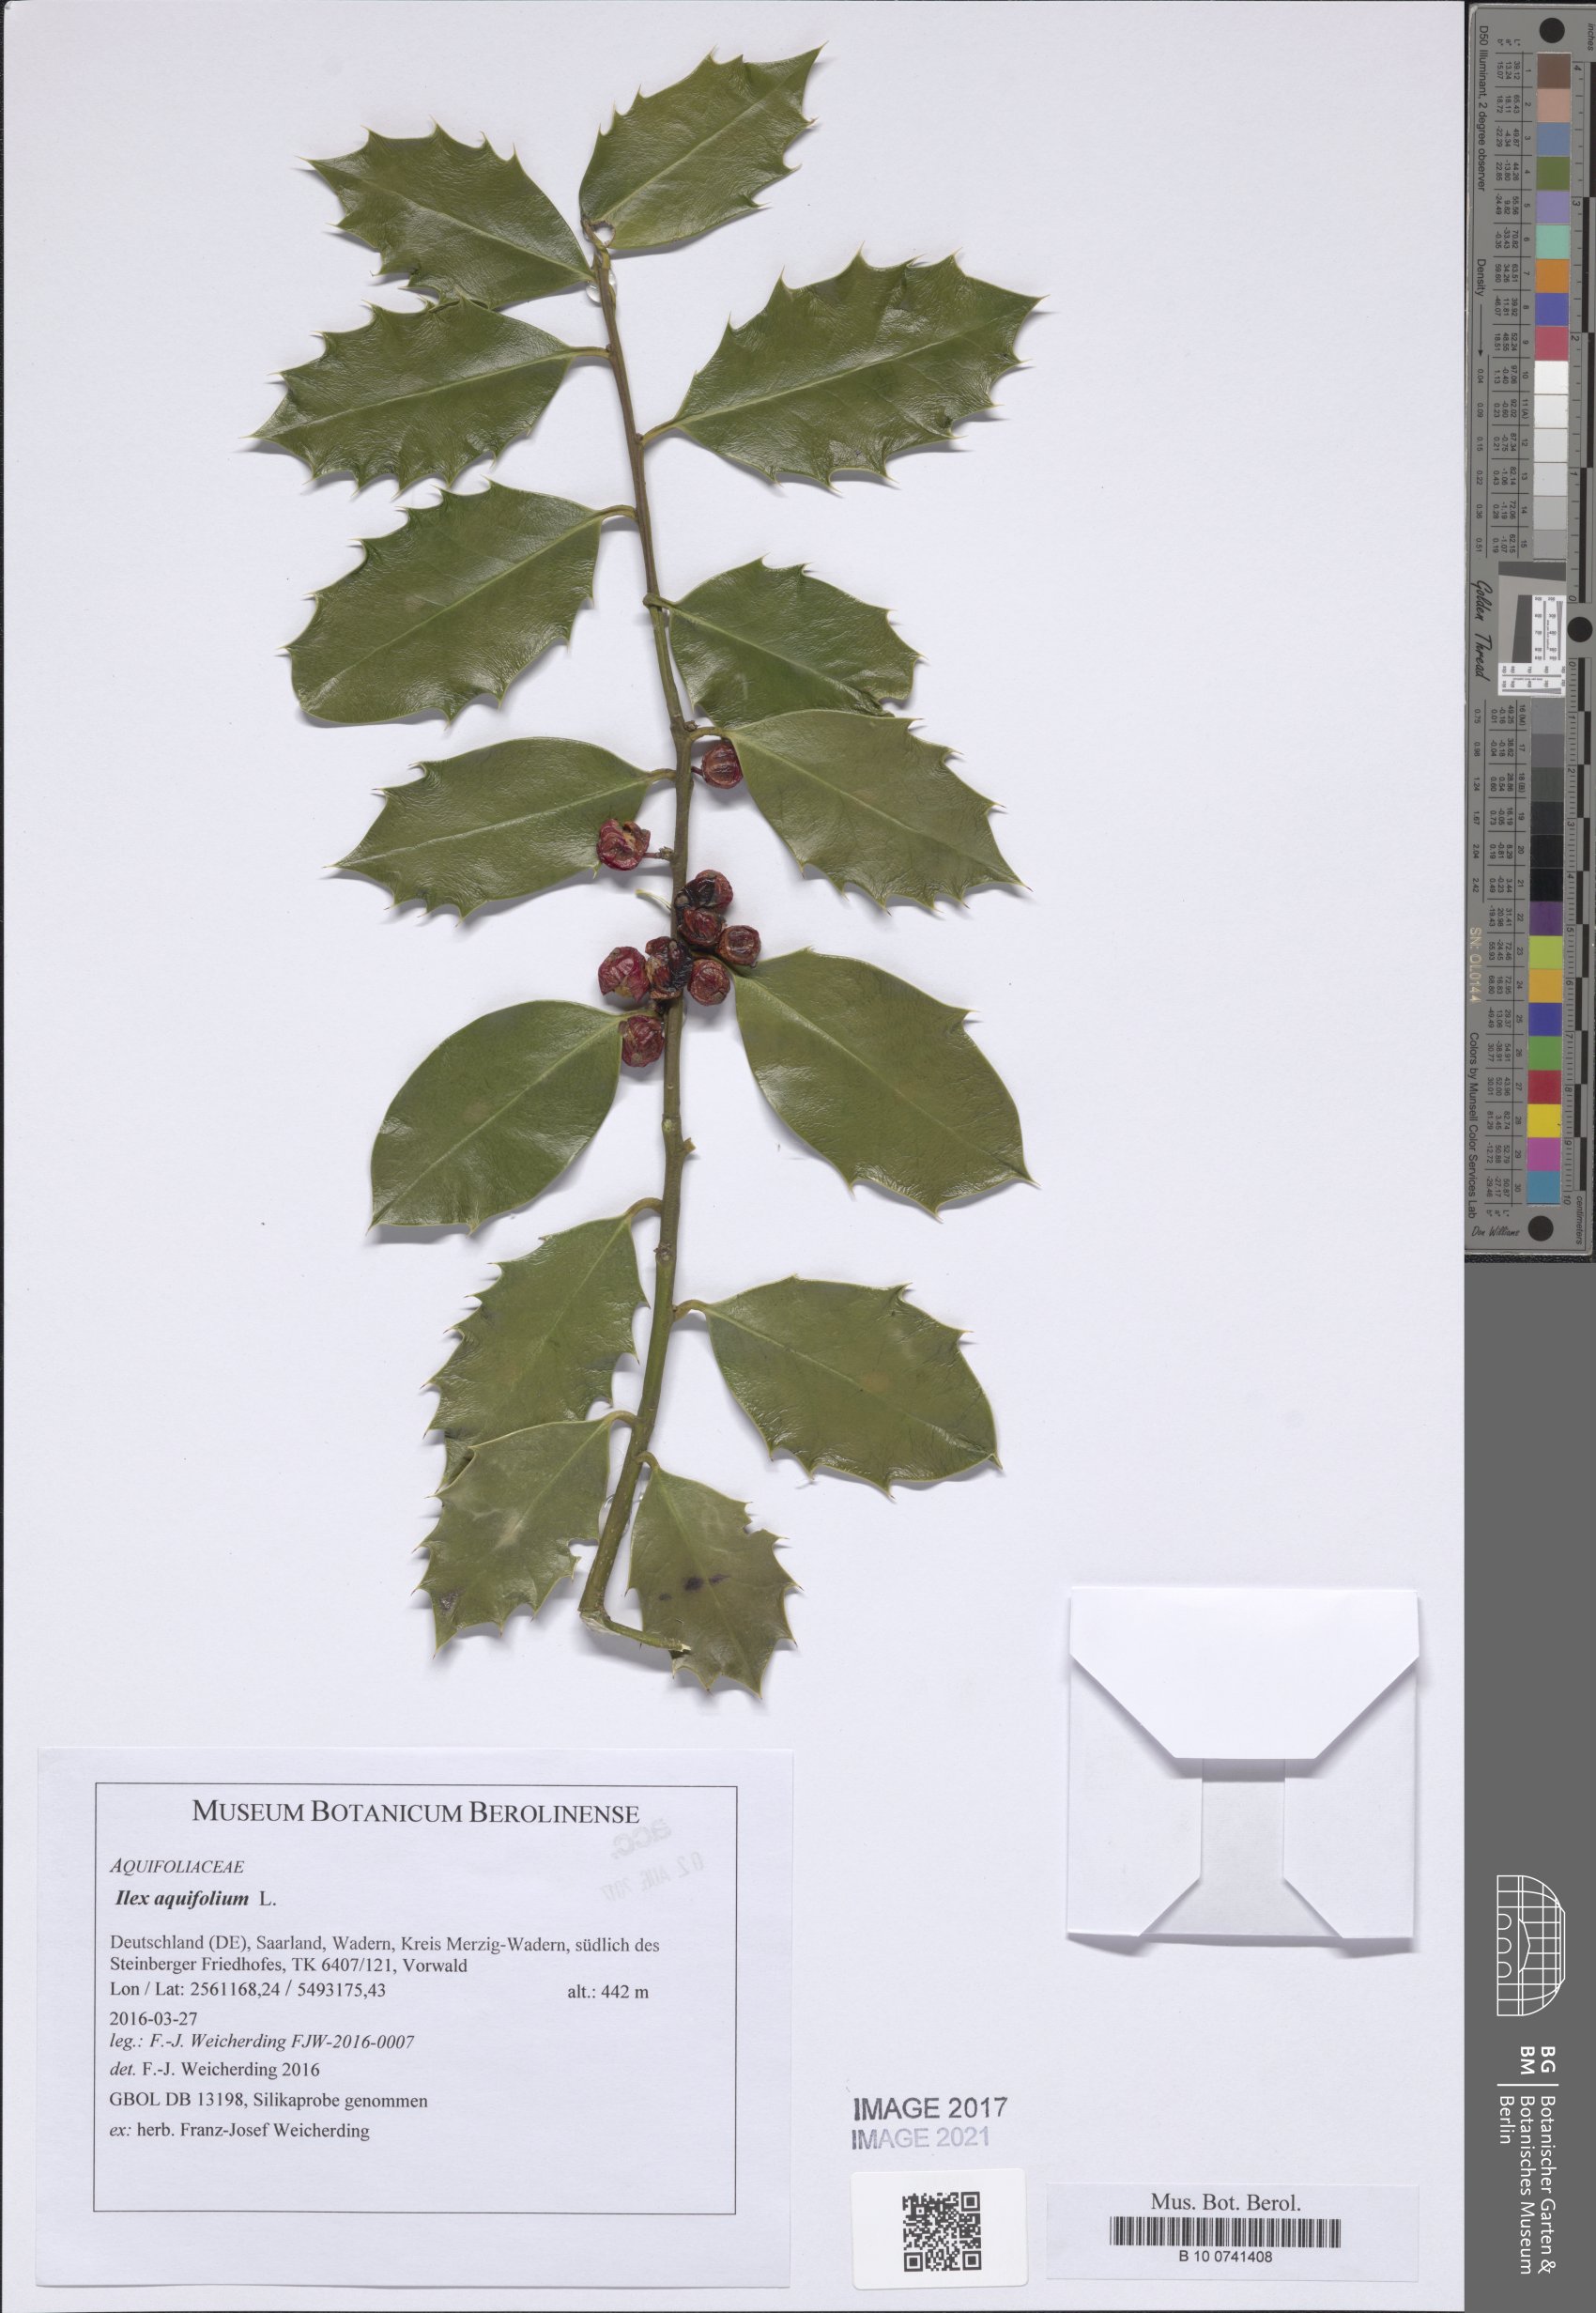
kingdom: Plantae
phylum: Tracheophyta
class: Magnoliopsida
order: Aquifoliales
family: Aquifoliaceae
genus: Ilex
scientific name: Ilex aquifolium
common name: English holly
